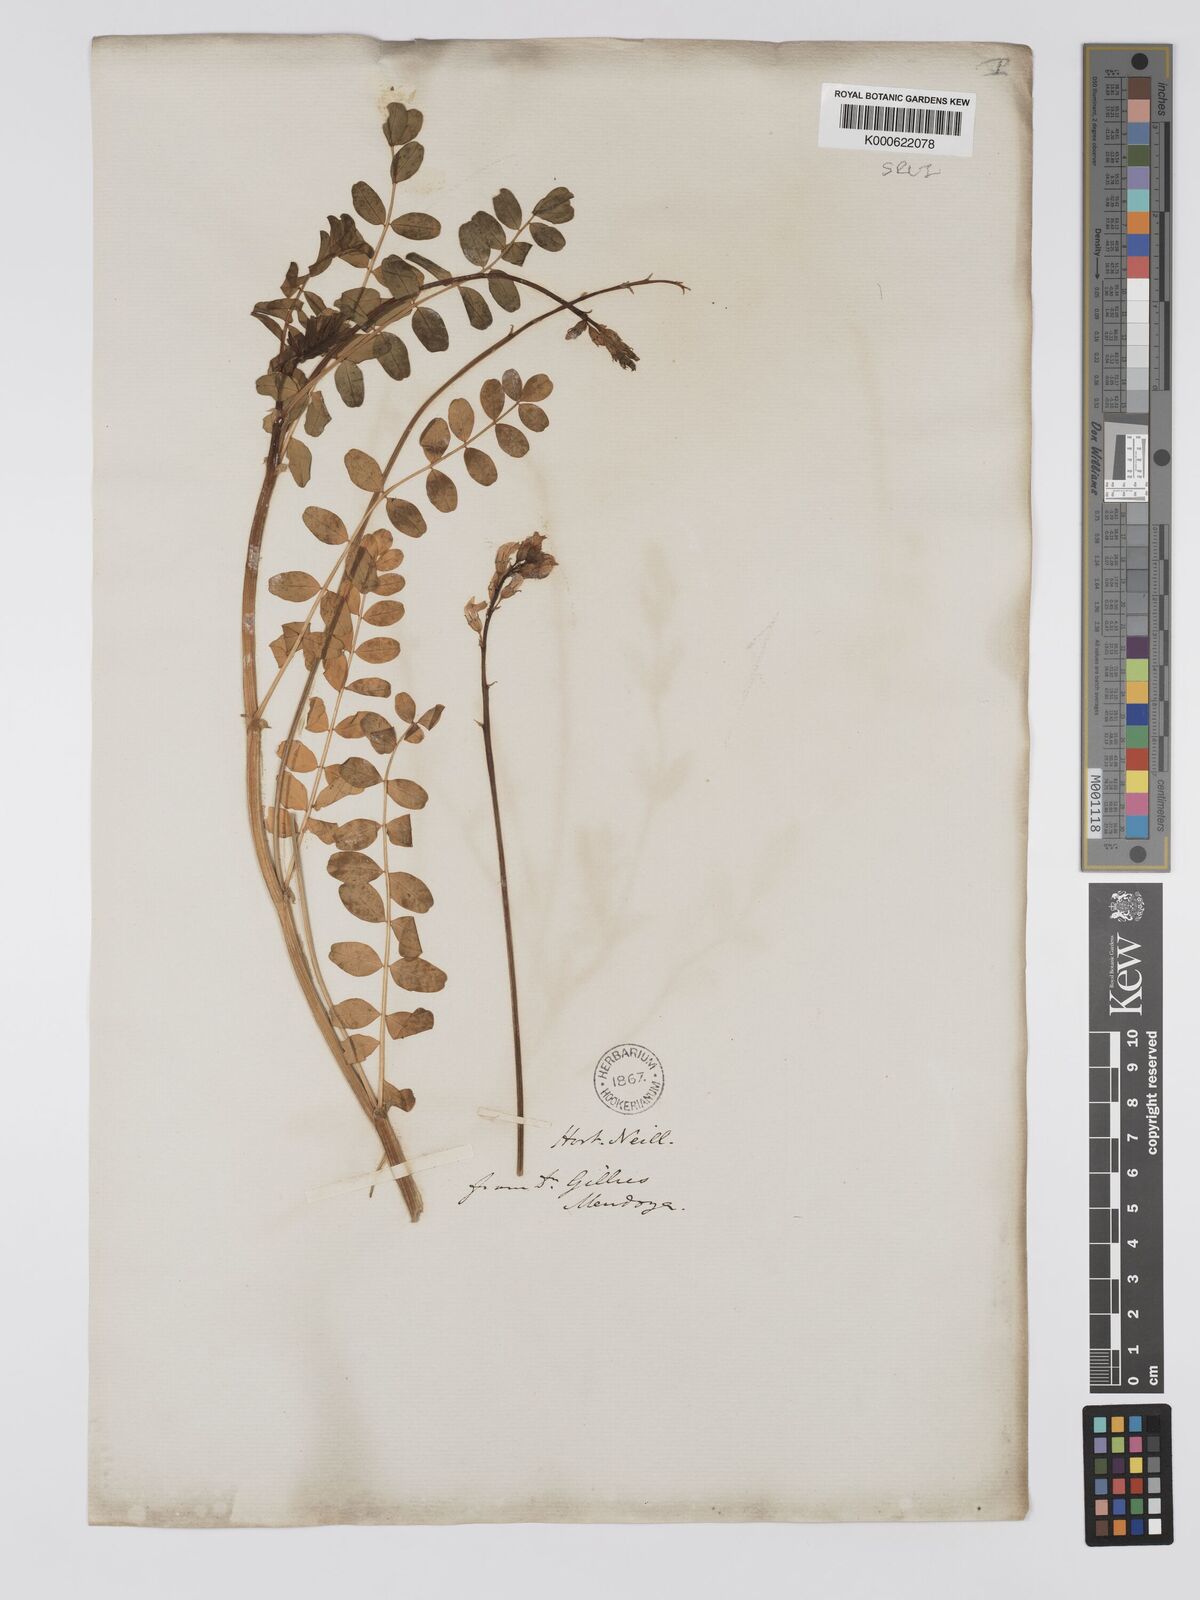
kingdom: Plantae
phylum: Tracheophyta
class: Magnoliopsida
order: Fabales
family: Fabaceae
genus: Astragalus
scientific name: Astragalus
